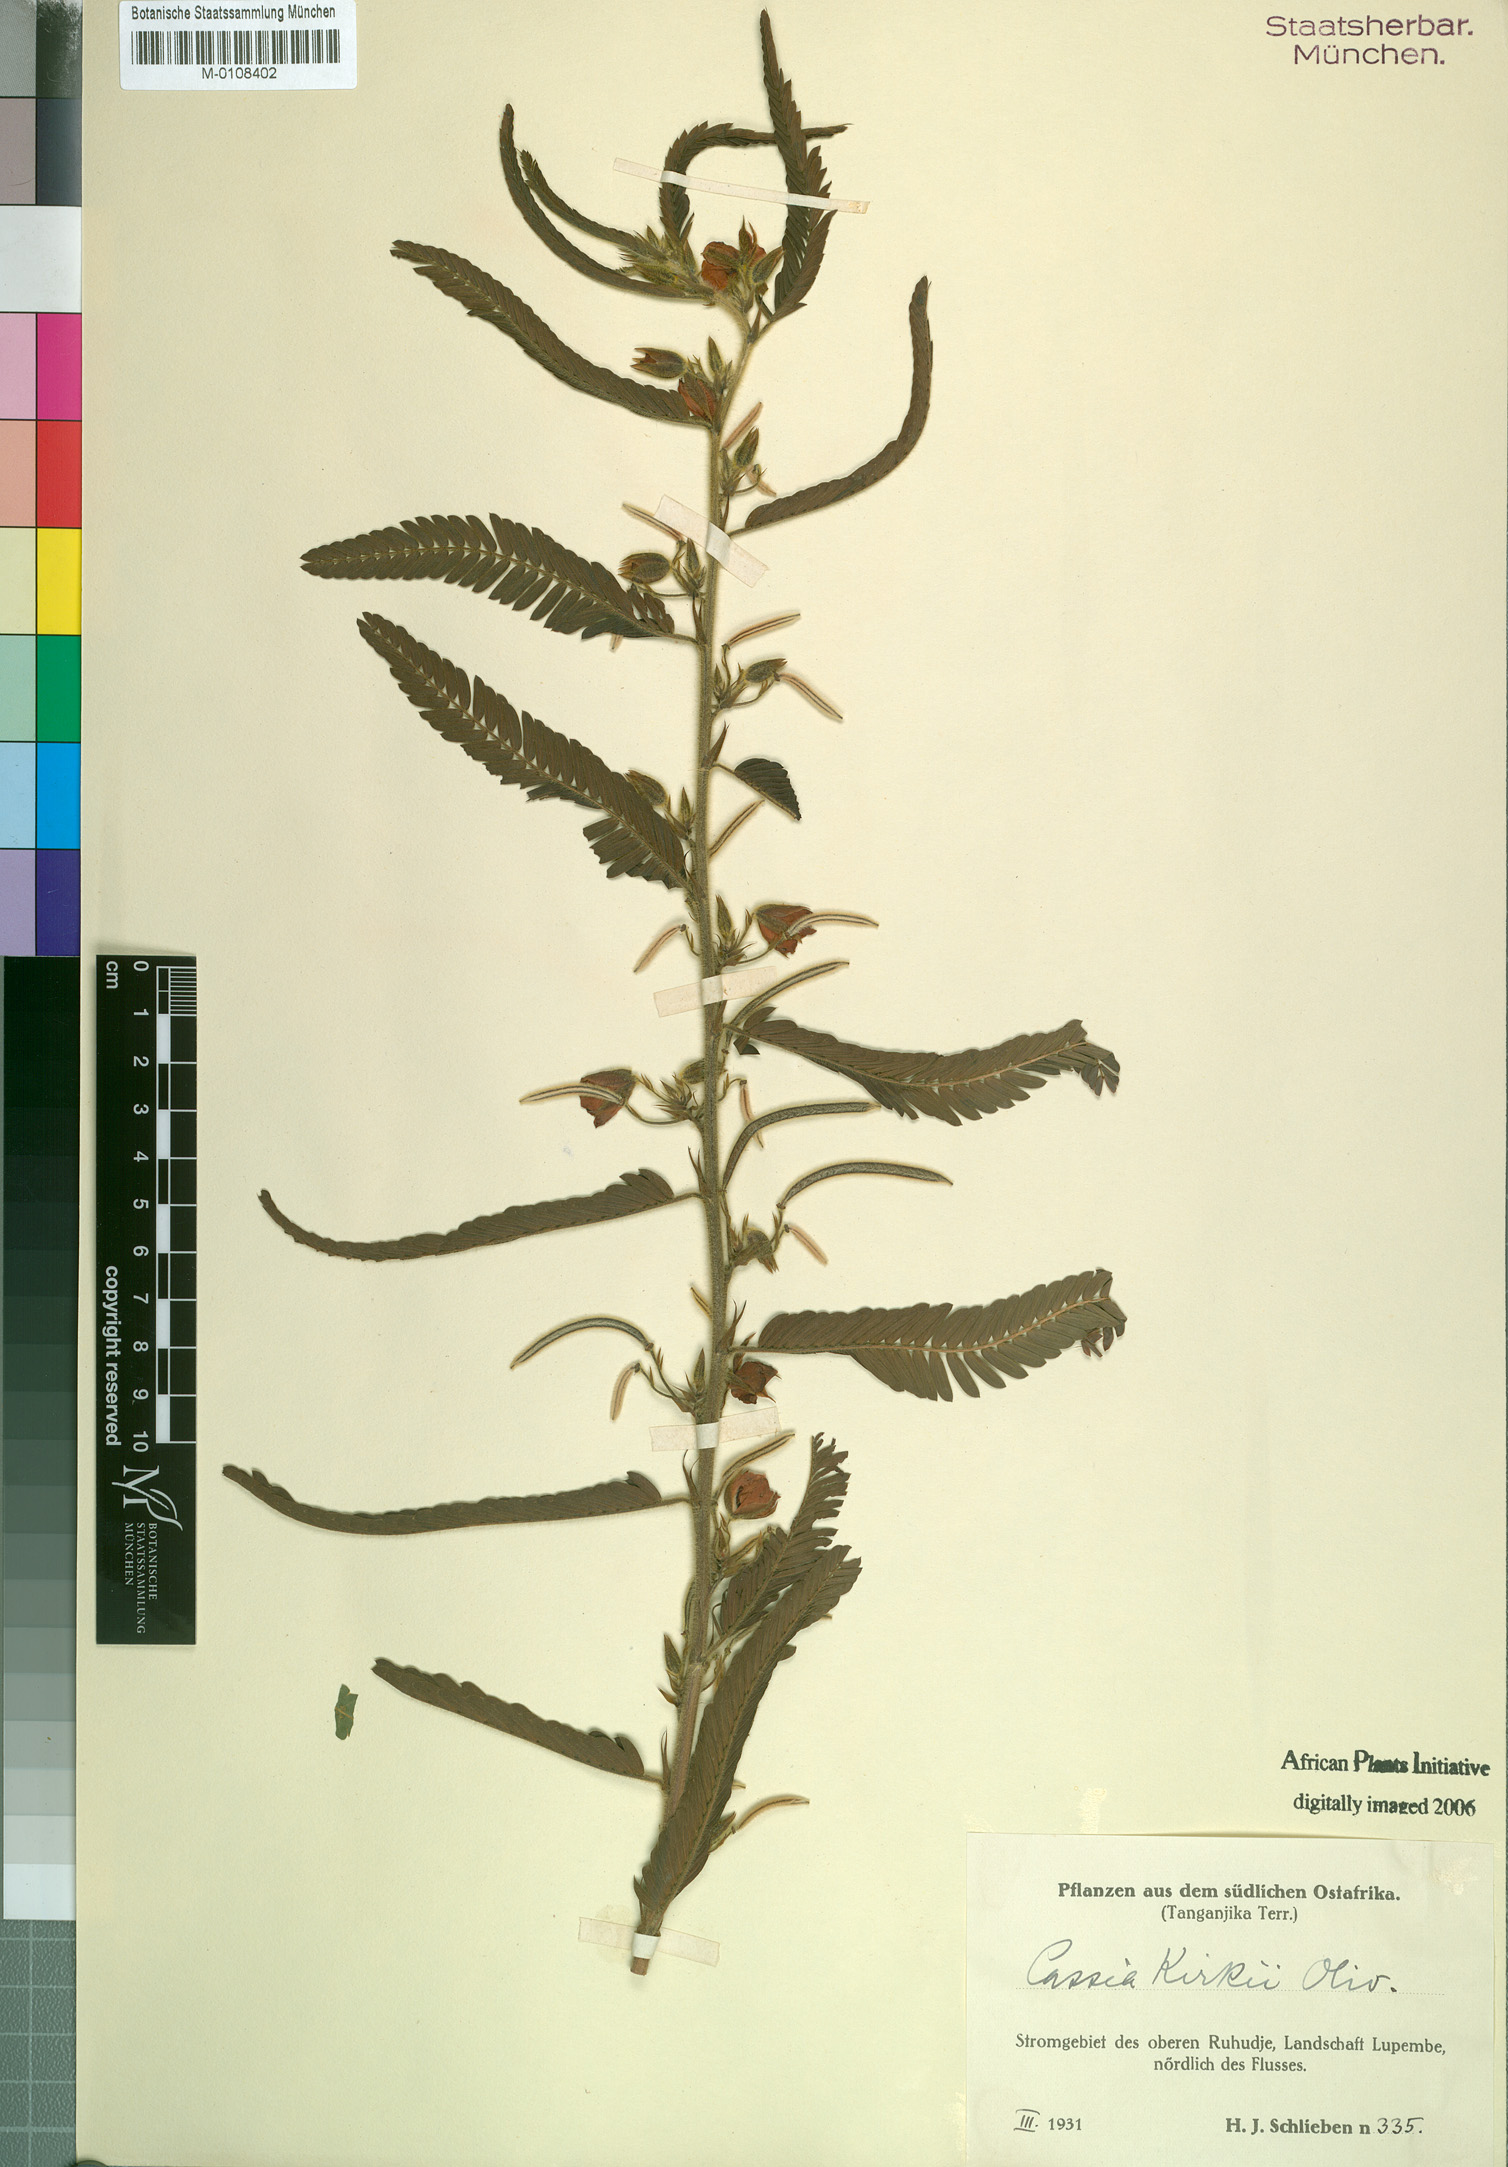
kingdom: Plantae
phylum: Tracheophyta
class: Magnoliopsida
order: Fabales
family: Fabaceae
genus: Chamaecrista
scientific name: Chamaecrista kirkii
